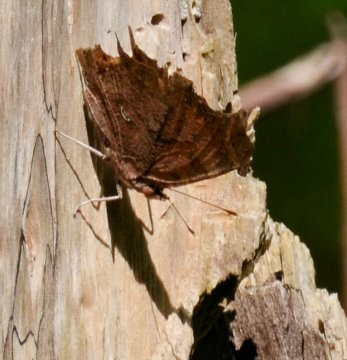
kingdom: Animalia
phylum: Arthropoda
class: Insecta
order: Lepidoptera
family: Nymphalidae
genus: Polygonia
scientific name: Polygonia comma
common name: Eastern Comma
